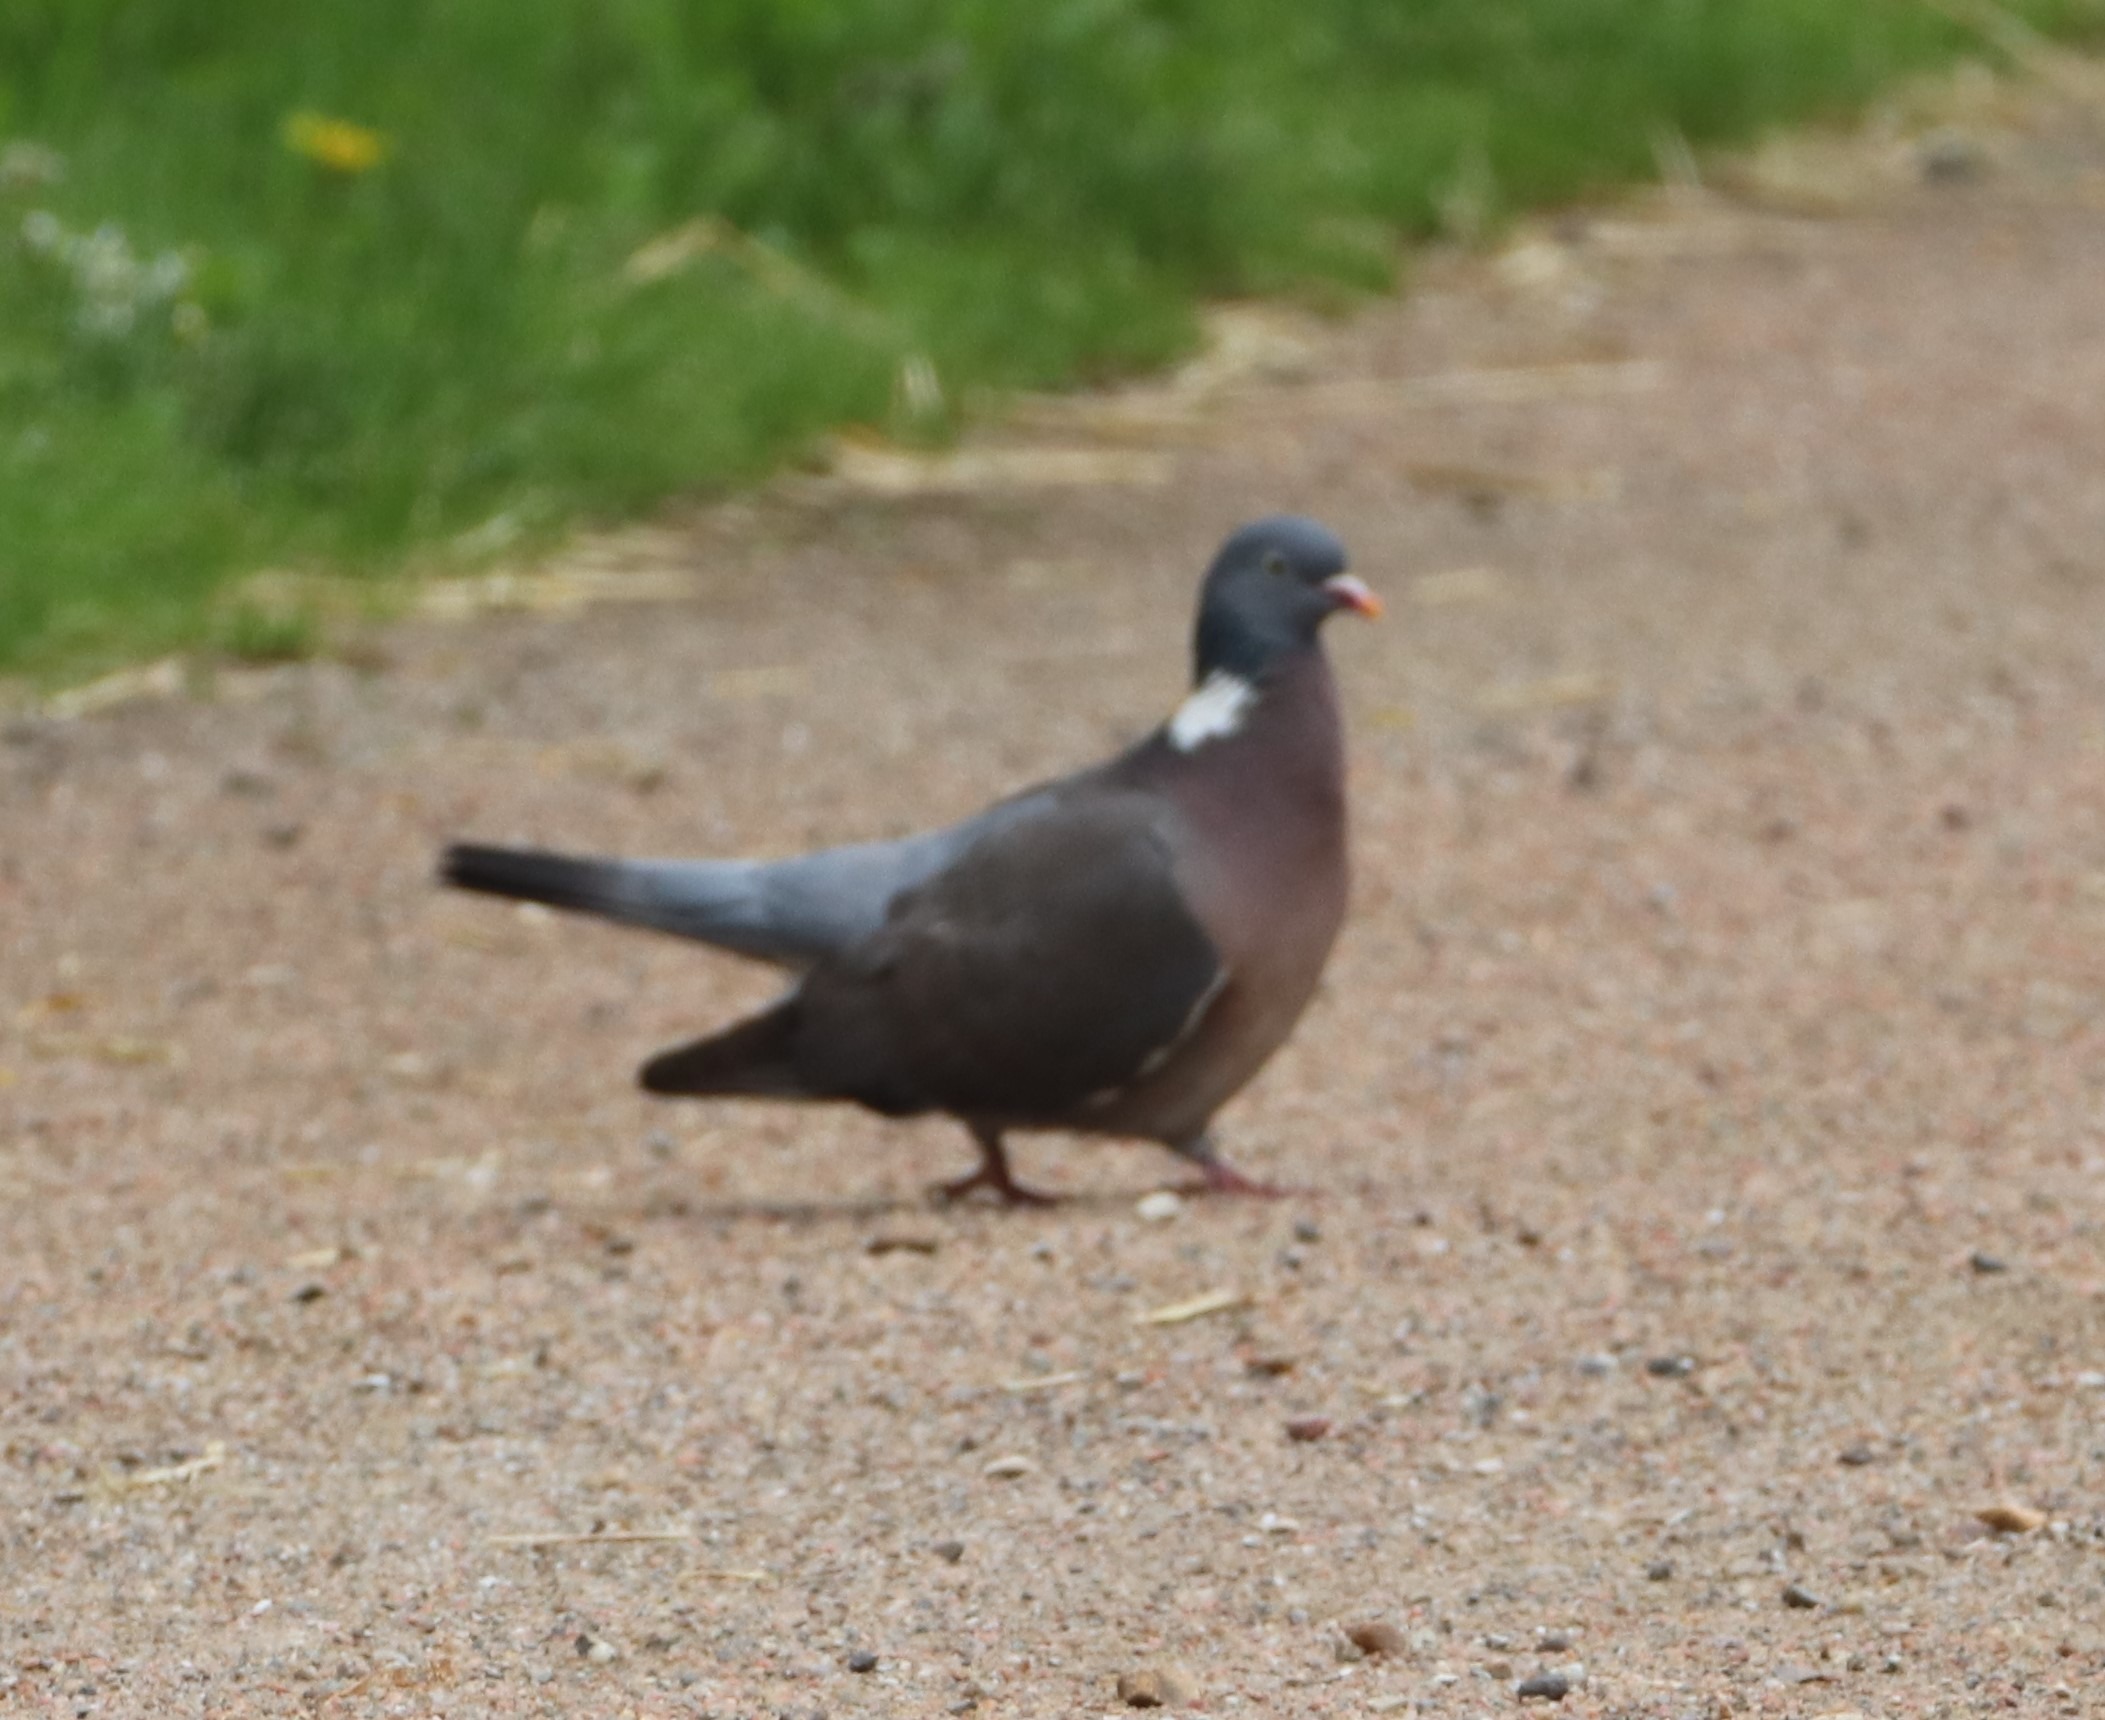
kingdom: Animalia
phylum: Chordata
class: Aves
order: Columbiformes
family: Columbidae
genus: Columba
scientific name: Columba palumbus
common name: Ringdue
